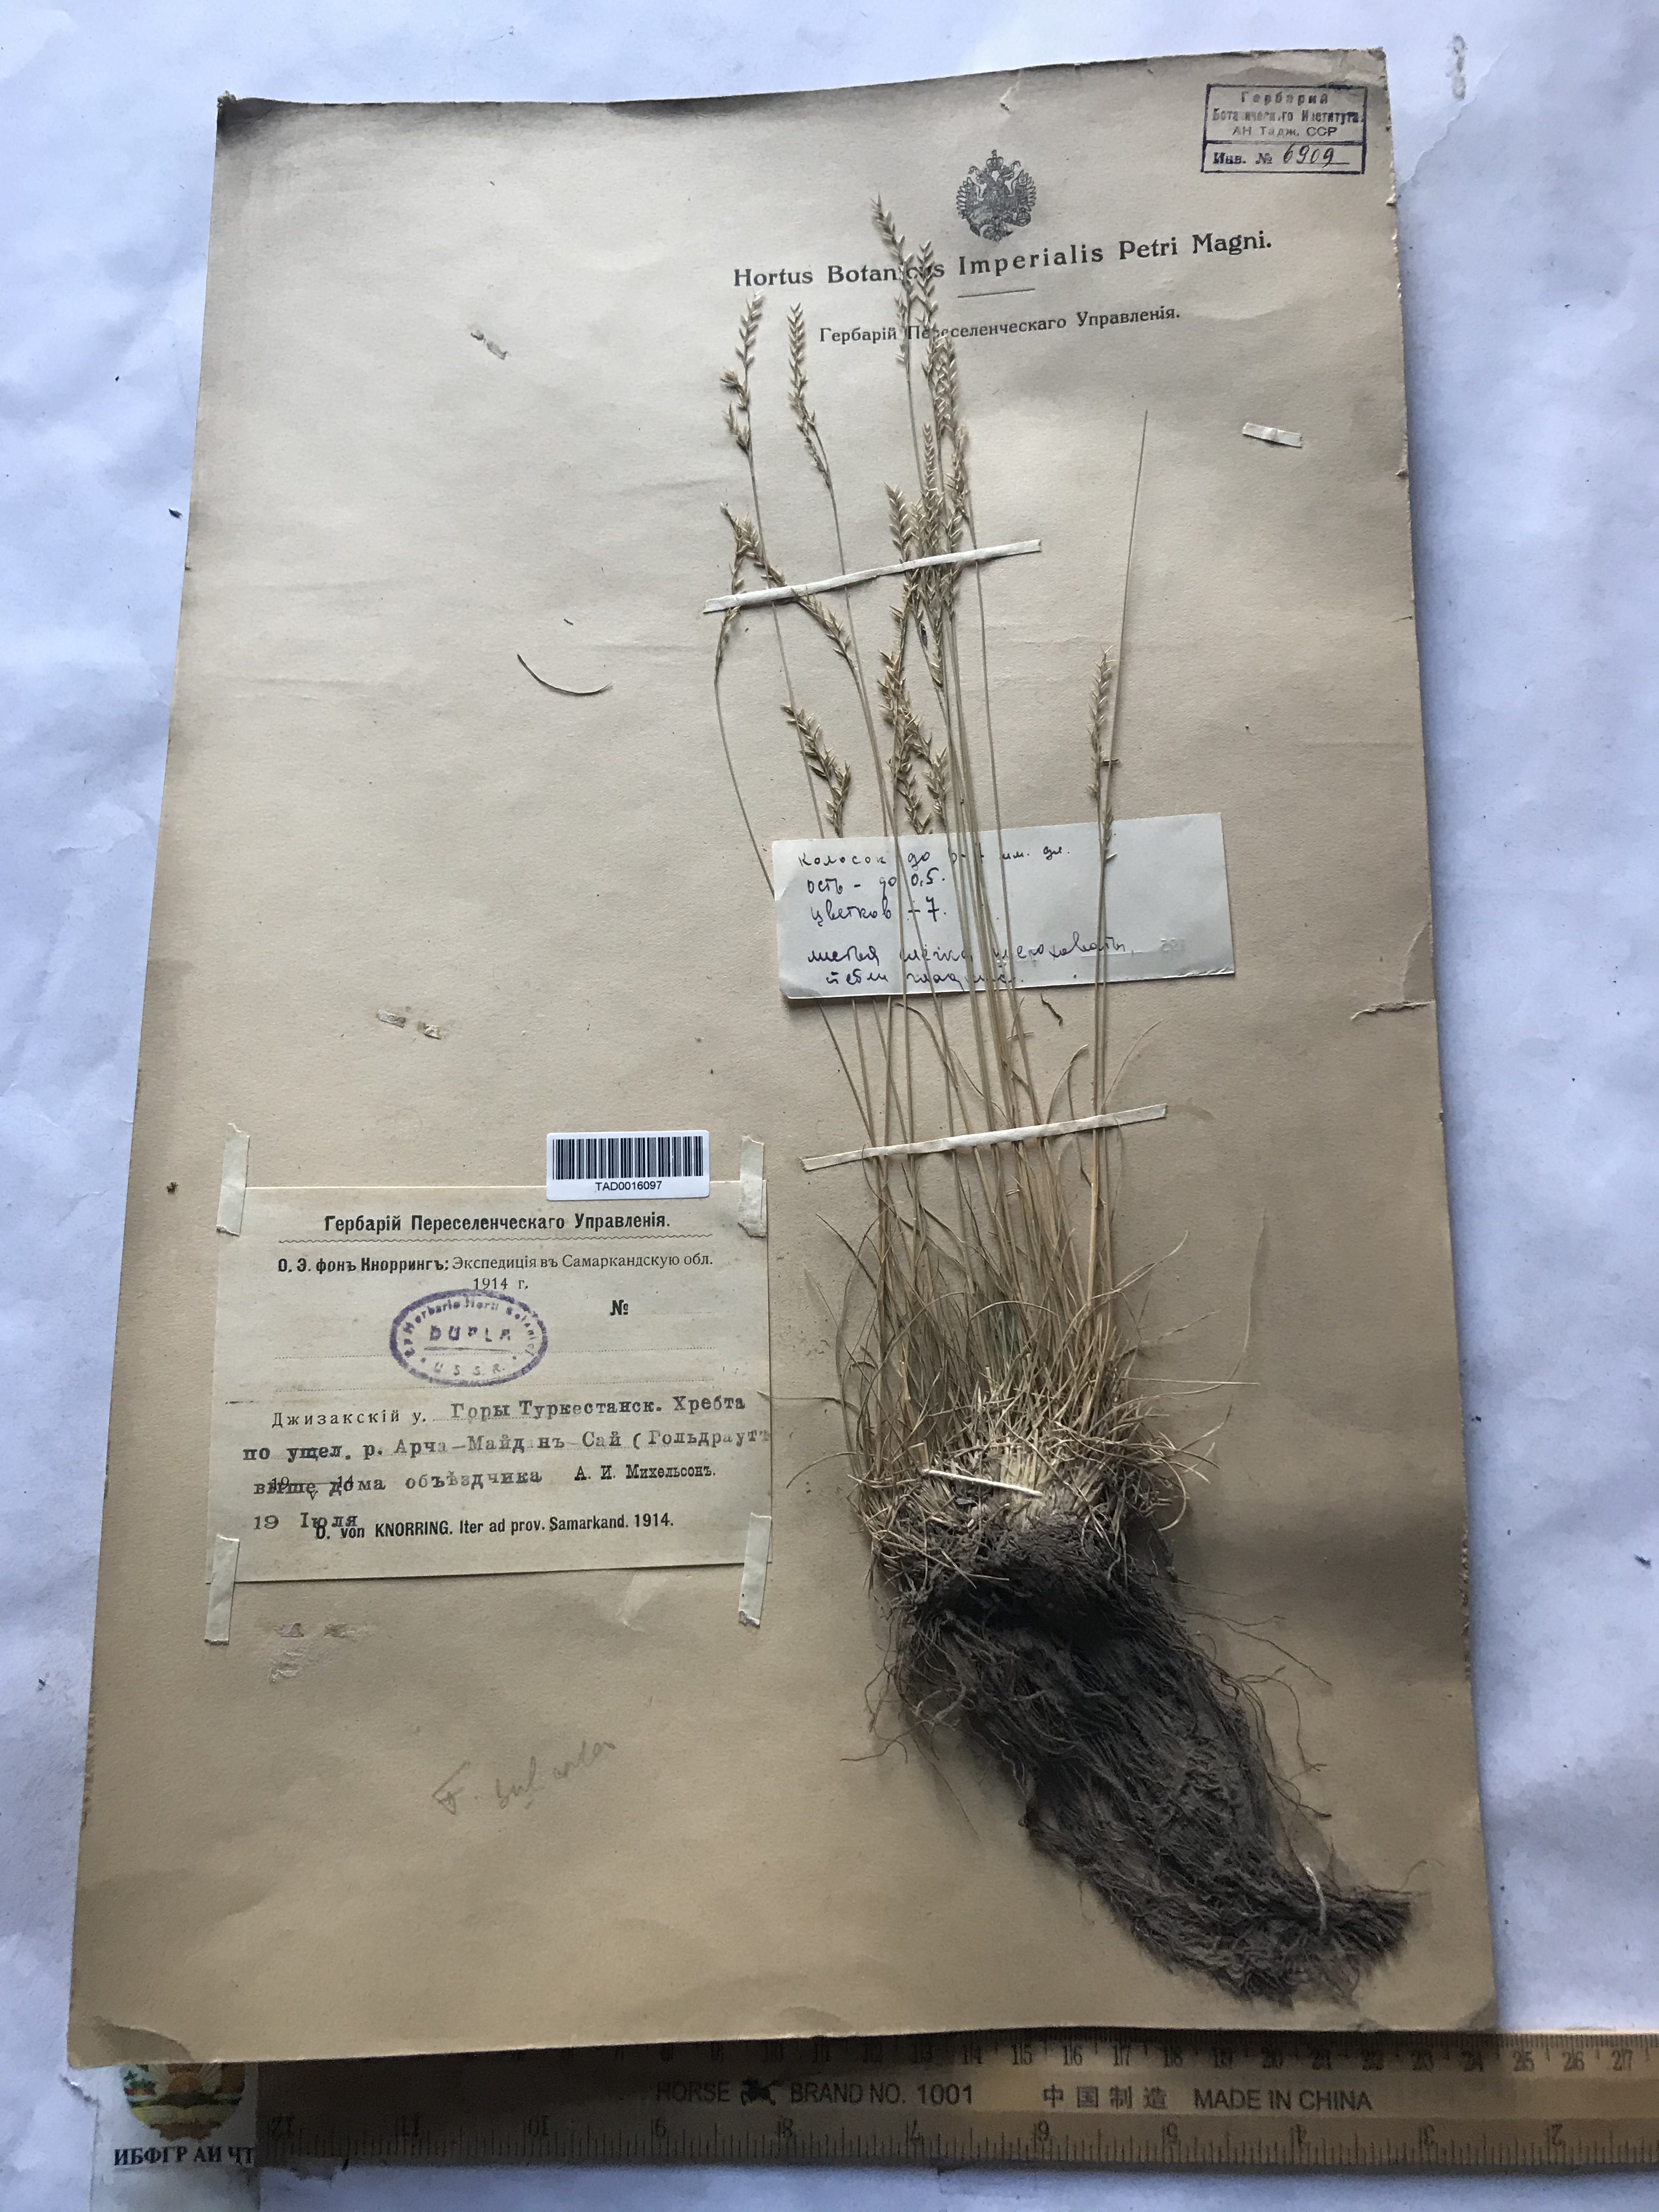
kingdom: Plantae
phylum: Tracheophyta
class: Liliopsida
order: Poales
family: Poaceae
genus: Festuca
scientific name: Festuca sulcata
